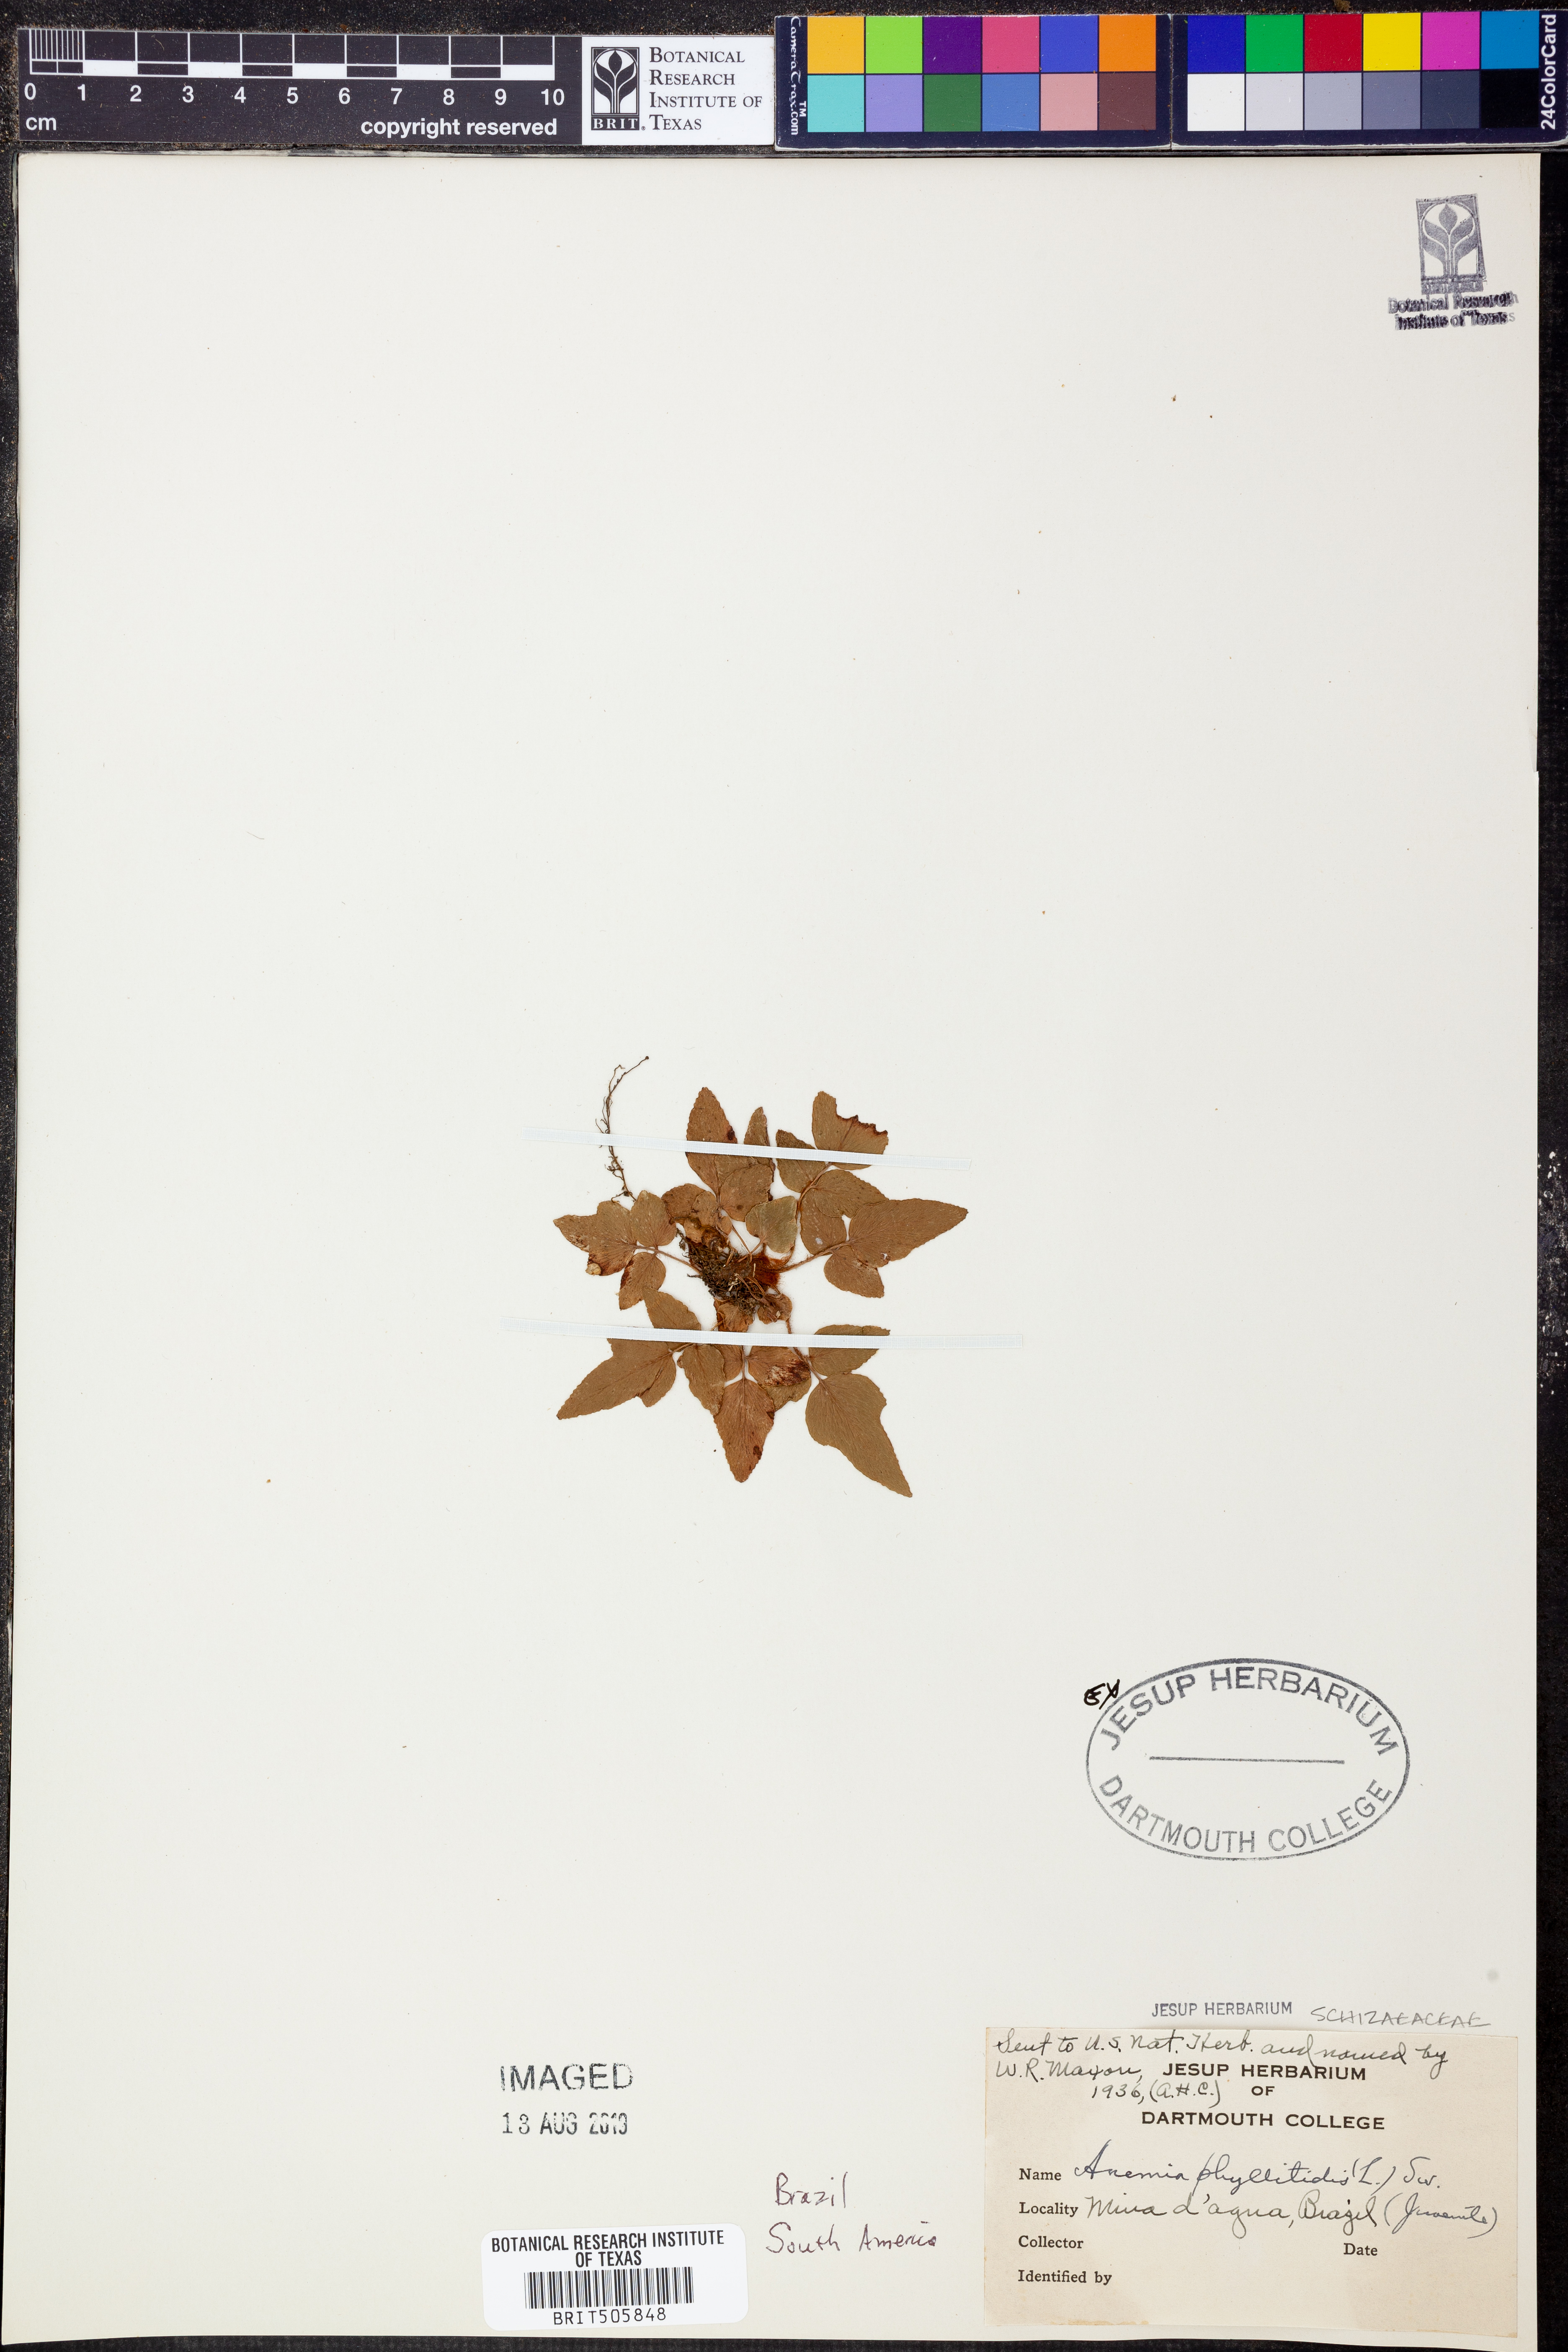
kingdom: Plantae
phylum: Tracheophyta
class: Polypodiopsida
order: Schizaeales
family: Anemiaceae
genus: Anemia
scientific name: Anemia phyllitidis
